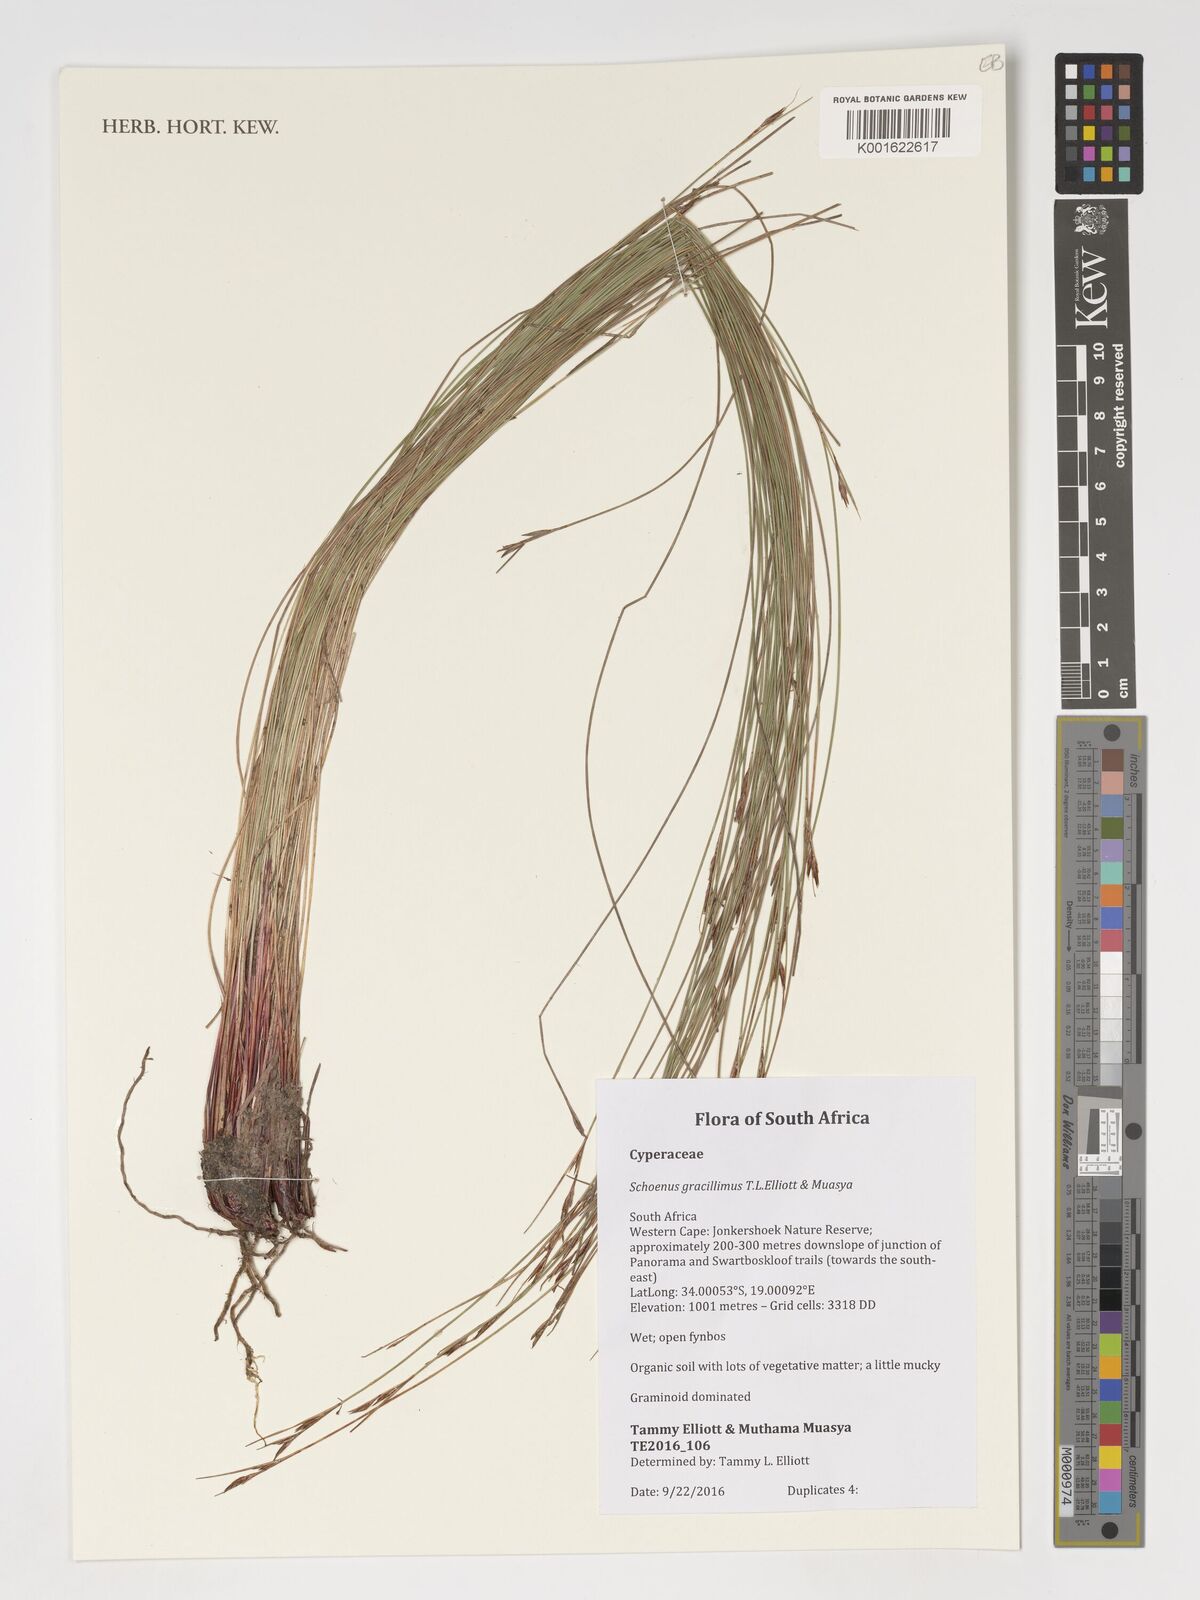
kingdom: Plantae
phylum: Tracheophyta
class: Liliopsida
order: Poales
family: Cyperaceae
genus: Schoenus
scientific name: Schoenus gracillimus
